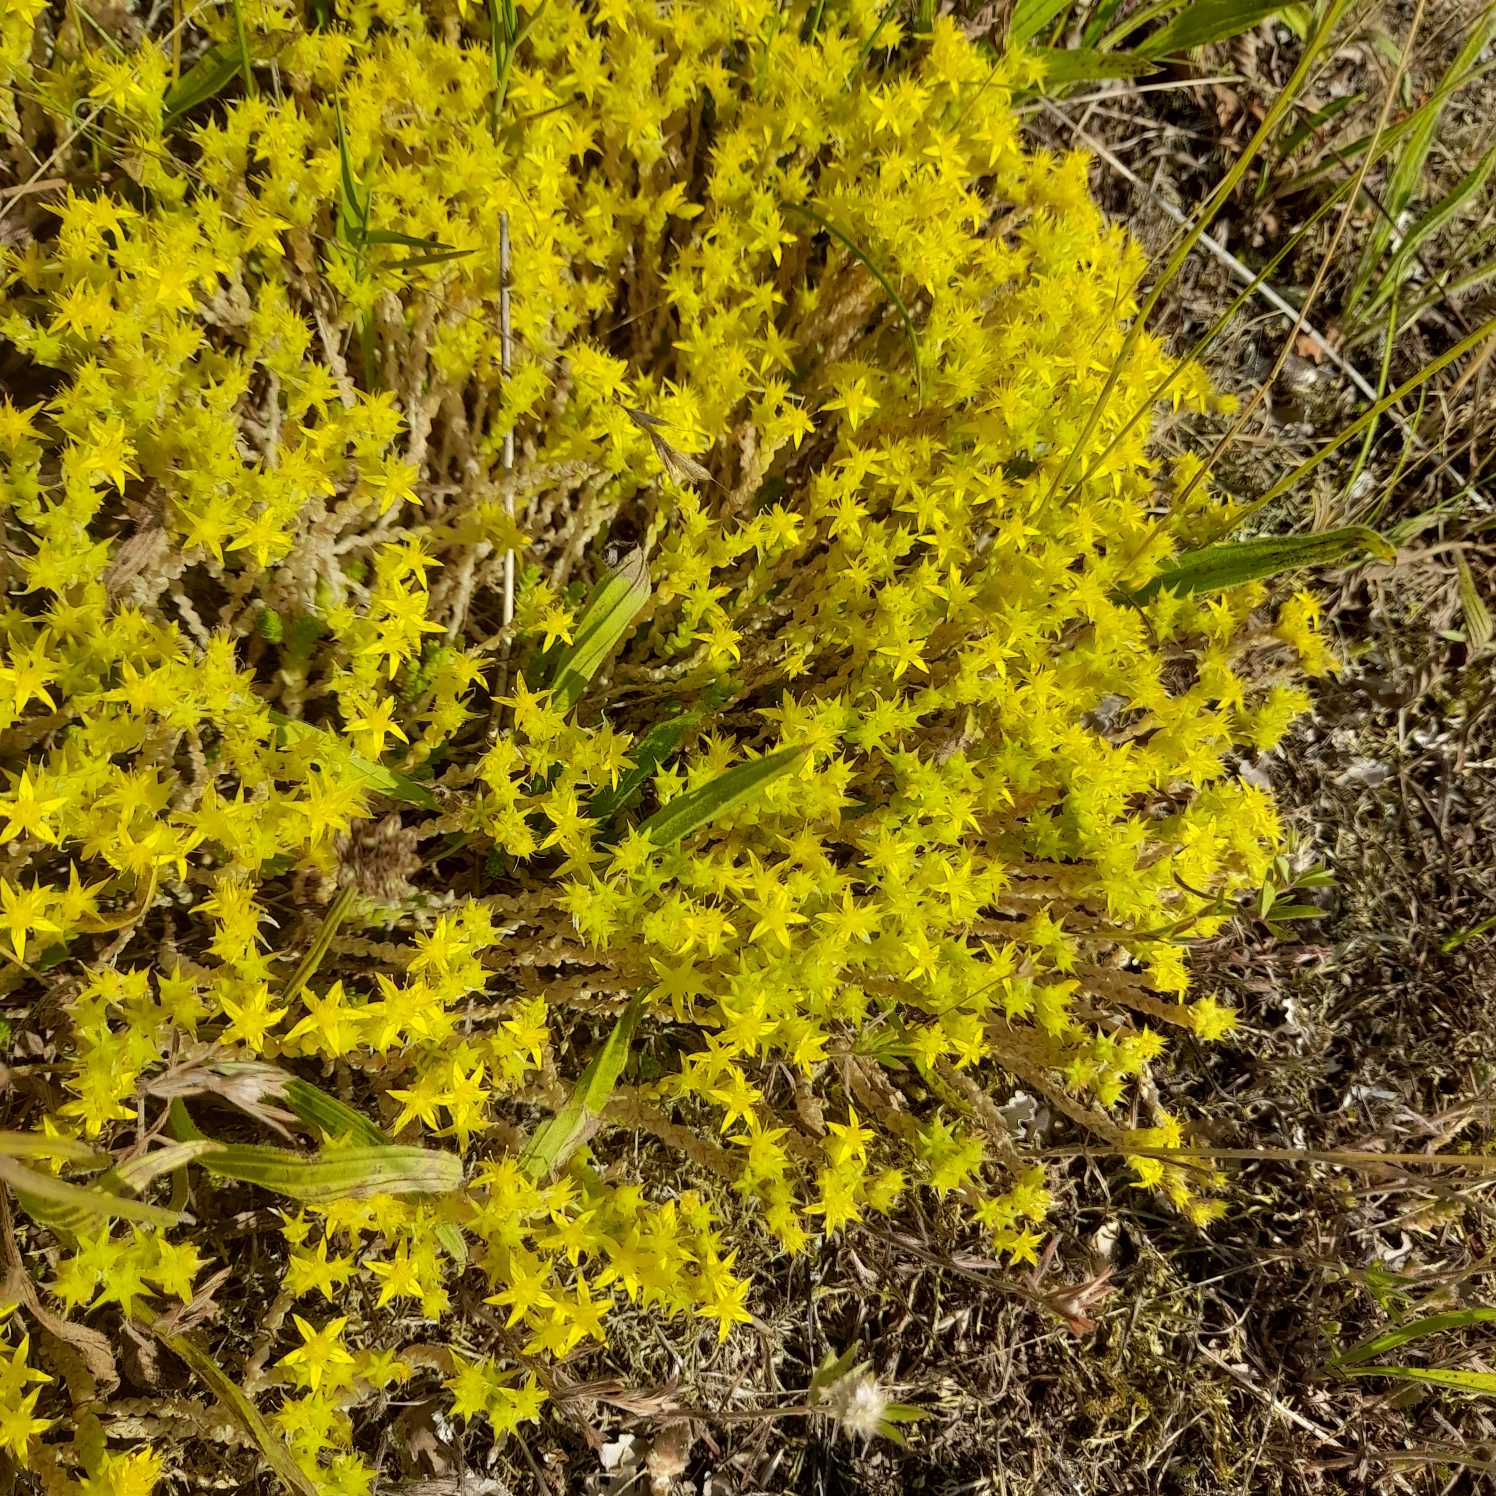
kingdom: Plantae
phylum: Tracheophyta
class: Magnoliopsida
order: Saxifragales
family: Crassulaceae
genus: Sedum
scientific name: Sedum acre
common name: Bidende stenurt
